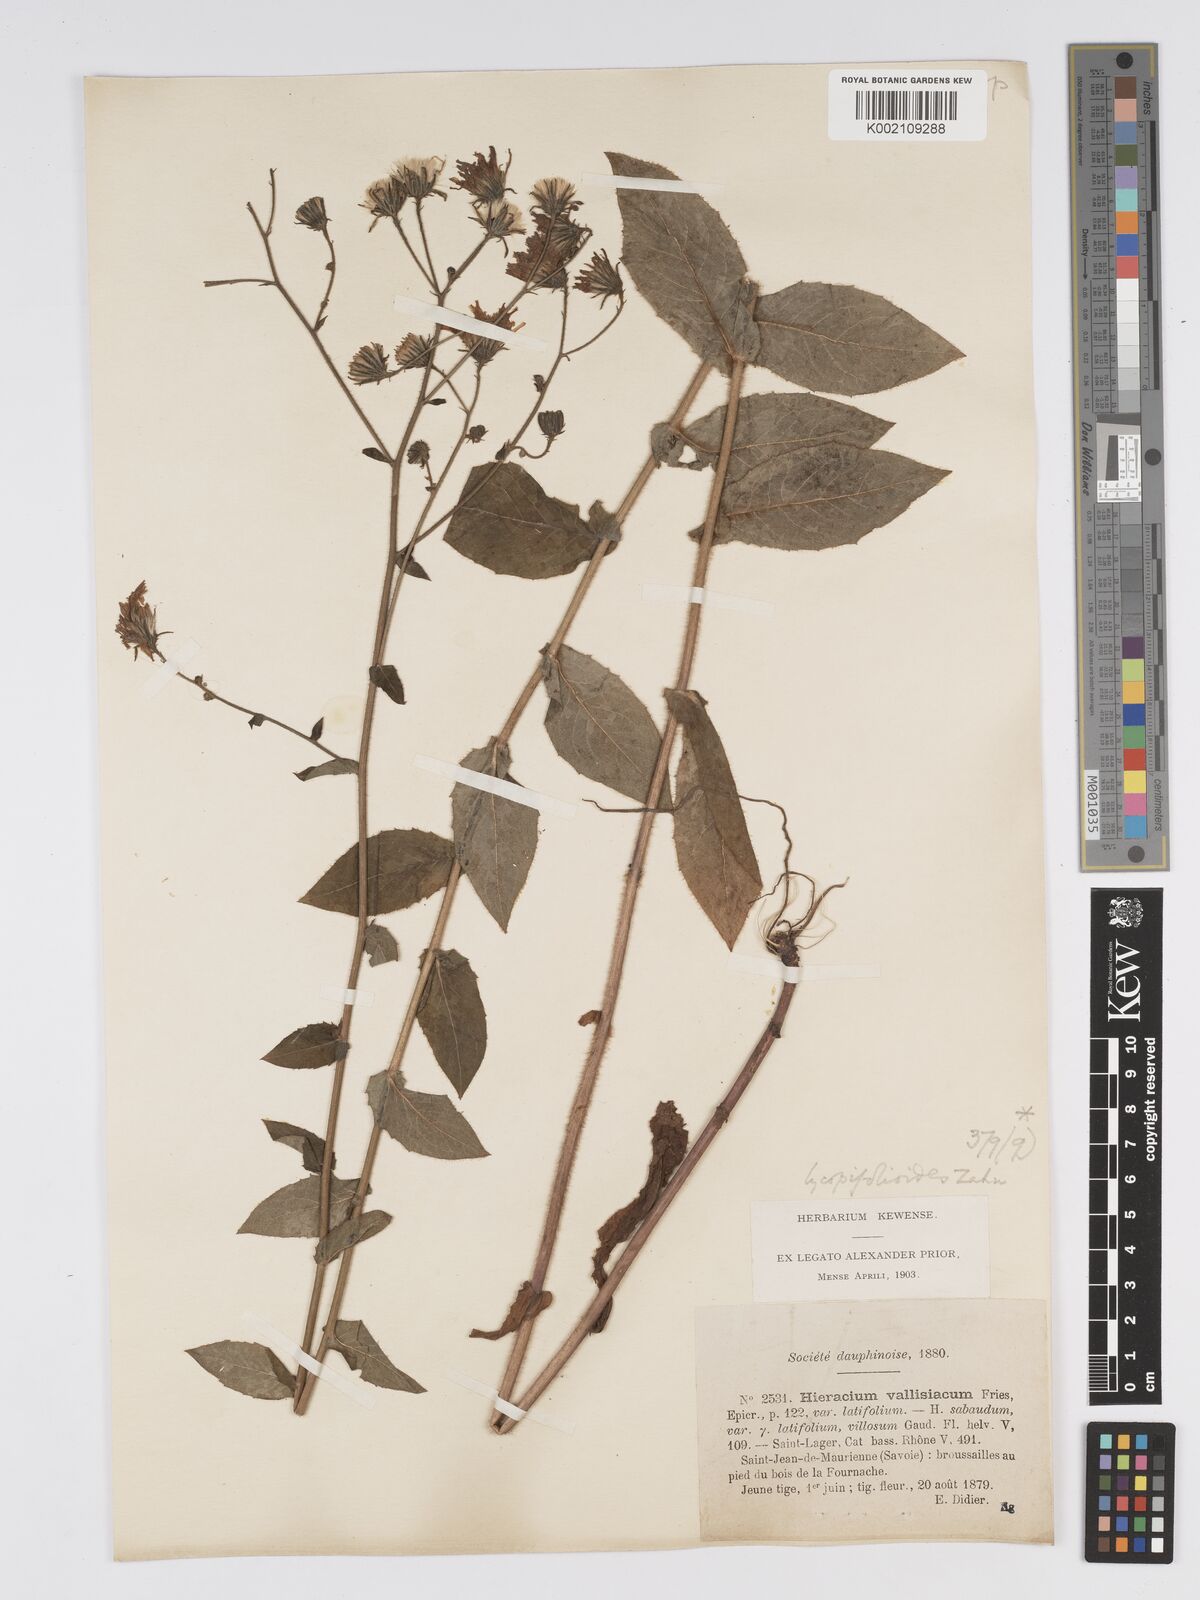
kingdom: Plantae
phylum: Tracheophyta
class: Magnoliopsida
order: Asterales
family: Asteraceae
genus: Hieracium
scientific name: Hieracium lycopifolium
